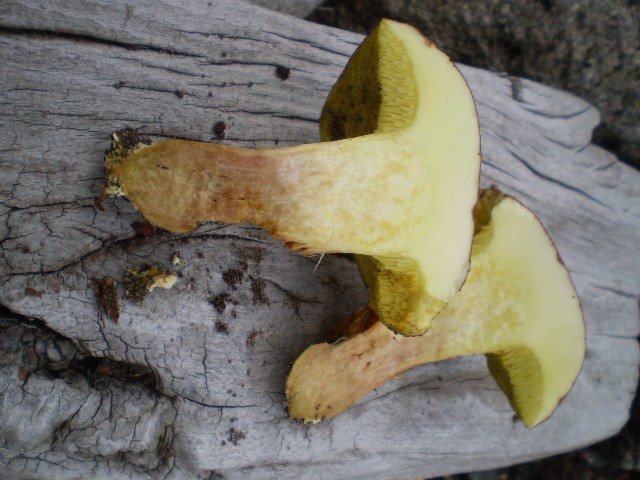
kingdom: Fungi
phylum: Basidiomycota
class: Agaricomycetes
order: Boletales
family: Boletaceae
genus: Xerocomus
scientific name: Xerocomus subtomentosus
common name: filtet rørhat
